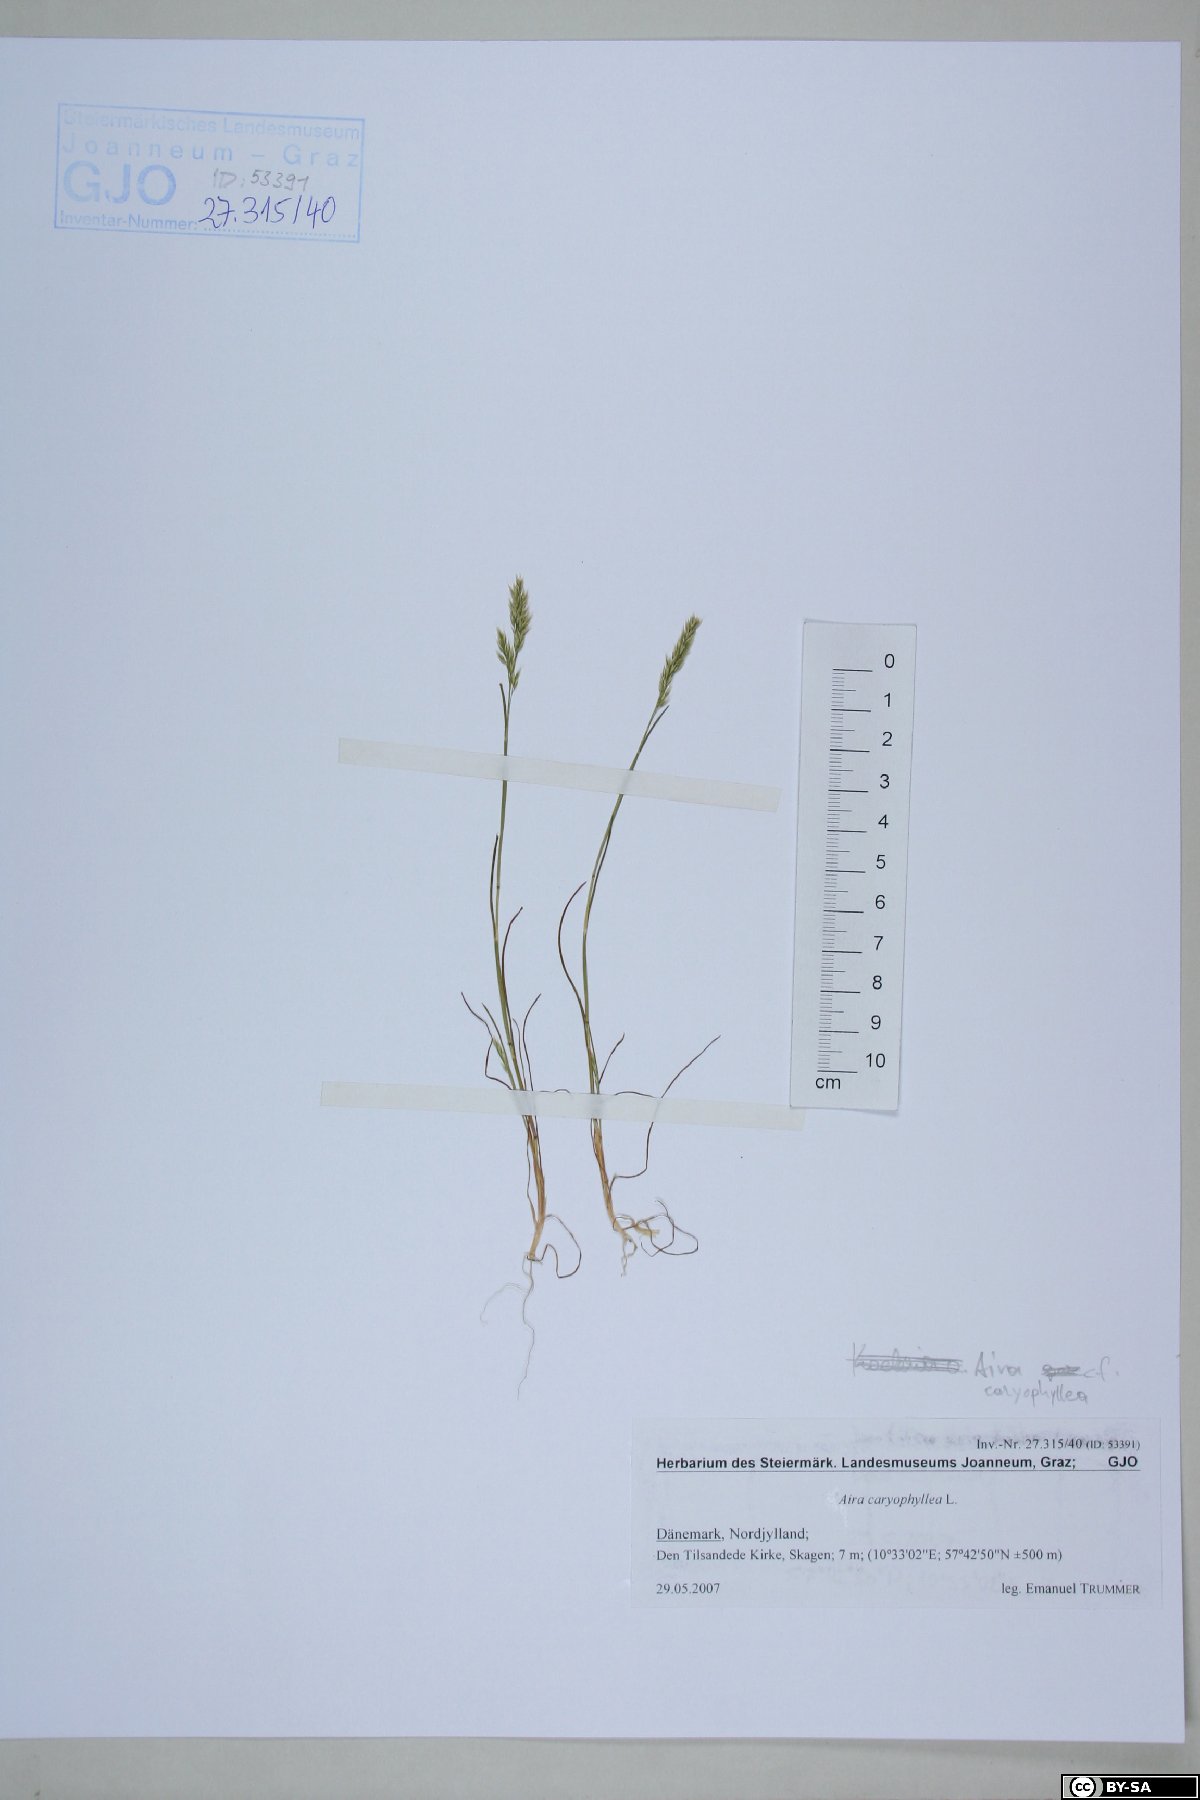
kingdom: Plantae
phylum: Tracheophyta
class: Liliopsida
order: Poales
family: Poaceae
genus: Aira
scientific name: Aira caryophyllea
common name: Silver hairgrass
